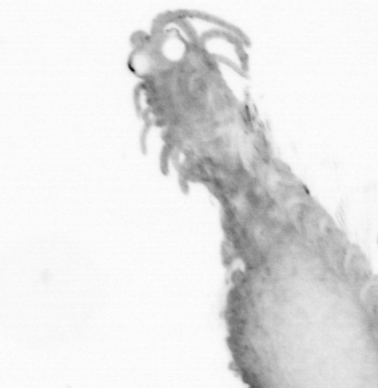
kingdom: Animalia
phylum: Annelida
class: Polychaeta
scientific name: Polychaeta
